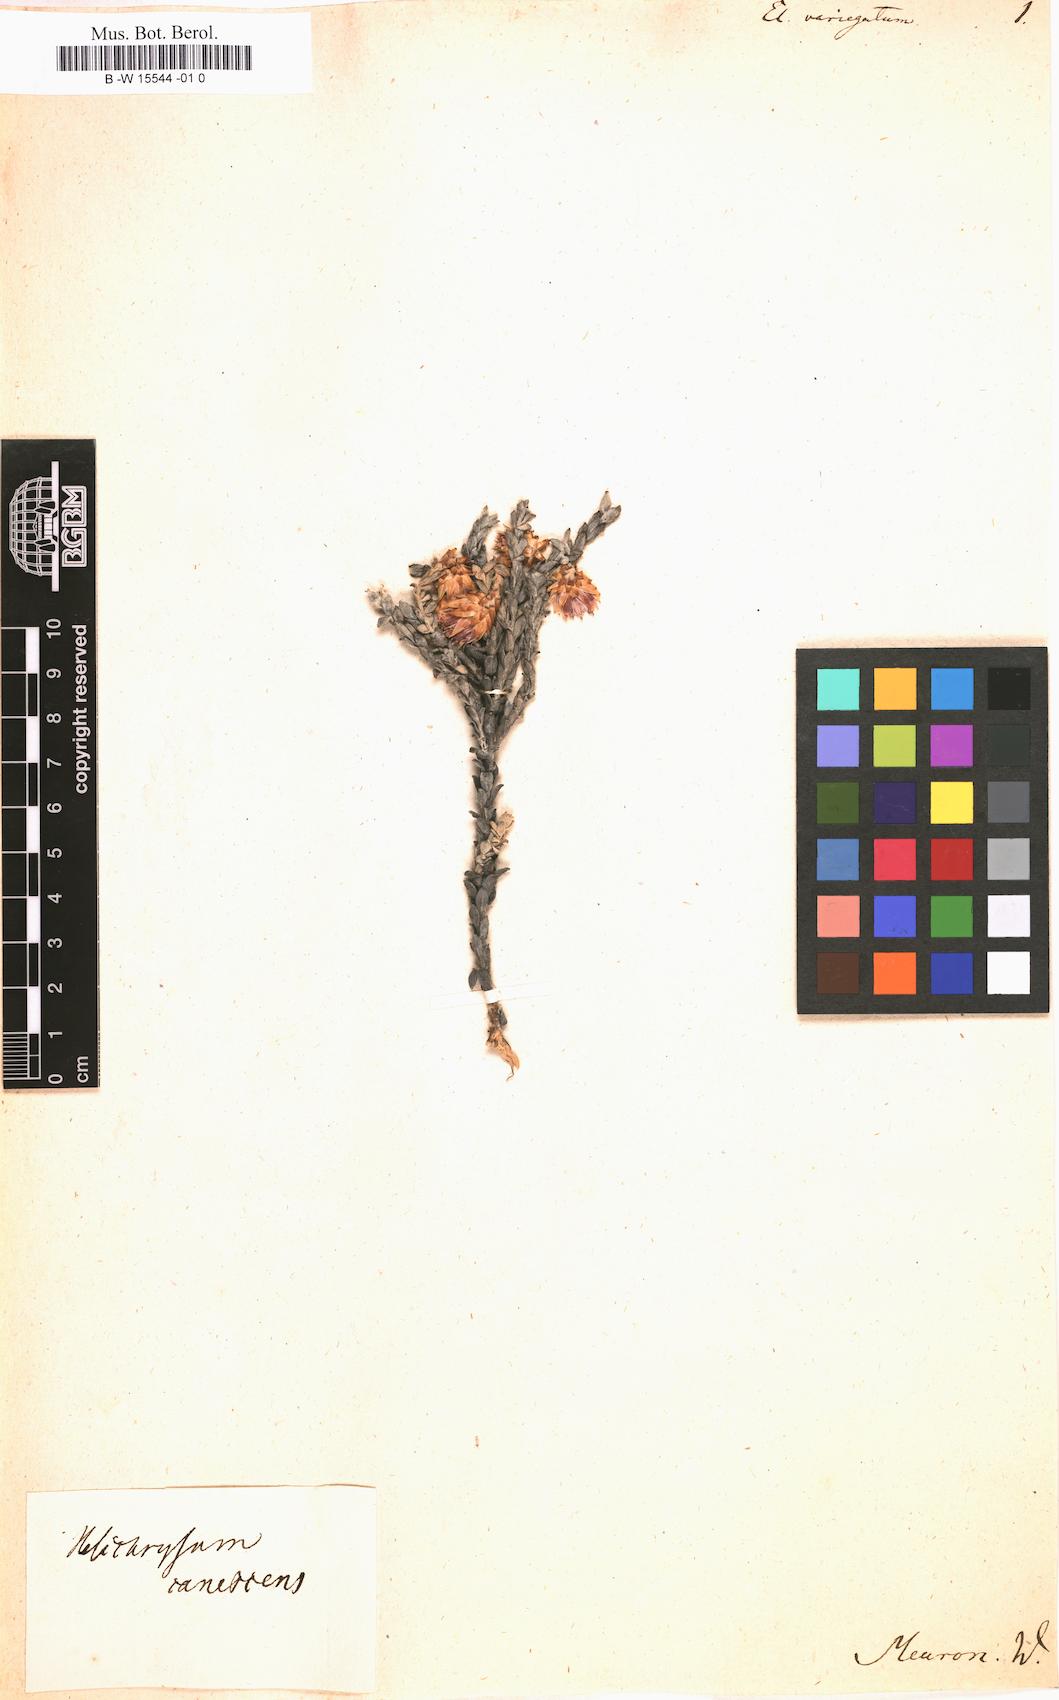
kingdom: Plantae
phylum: Tracheophyta
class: Magnoliopsida
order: Asterales
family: Asteraceae
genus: Helichrysum
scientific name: Helichrysum
